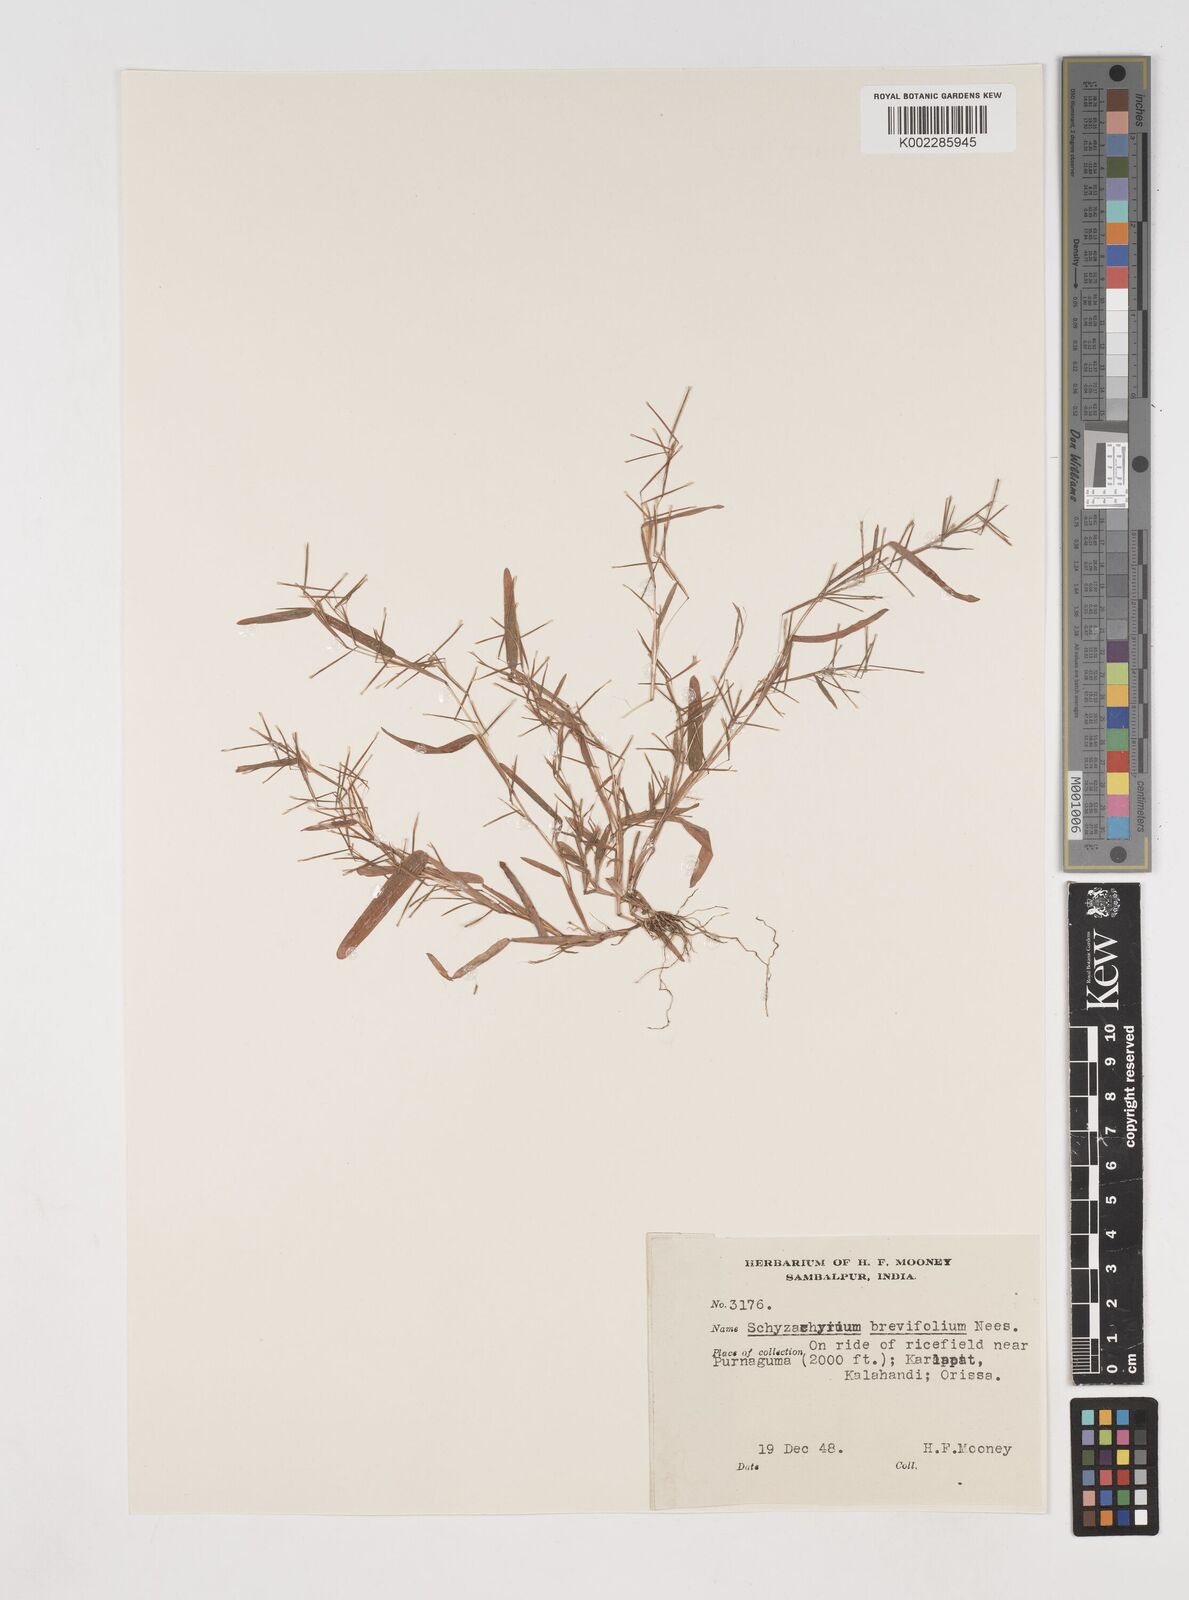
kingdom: Plantae
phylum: Tracheophyta
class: Liliopsida
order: Poales
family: Poaceae
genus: Schizachyrium
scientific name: Schizachyrium brevifolium
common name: Serillo dulce
